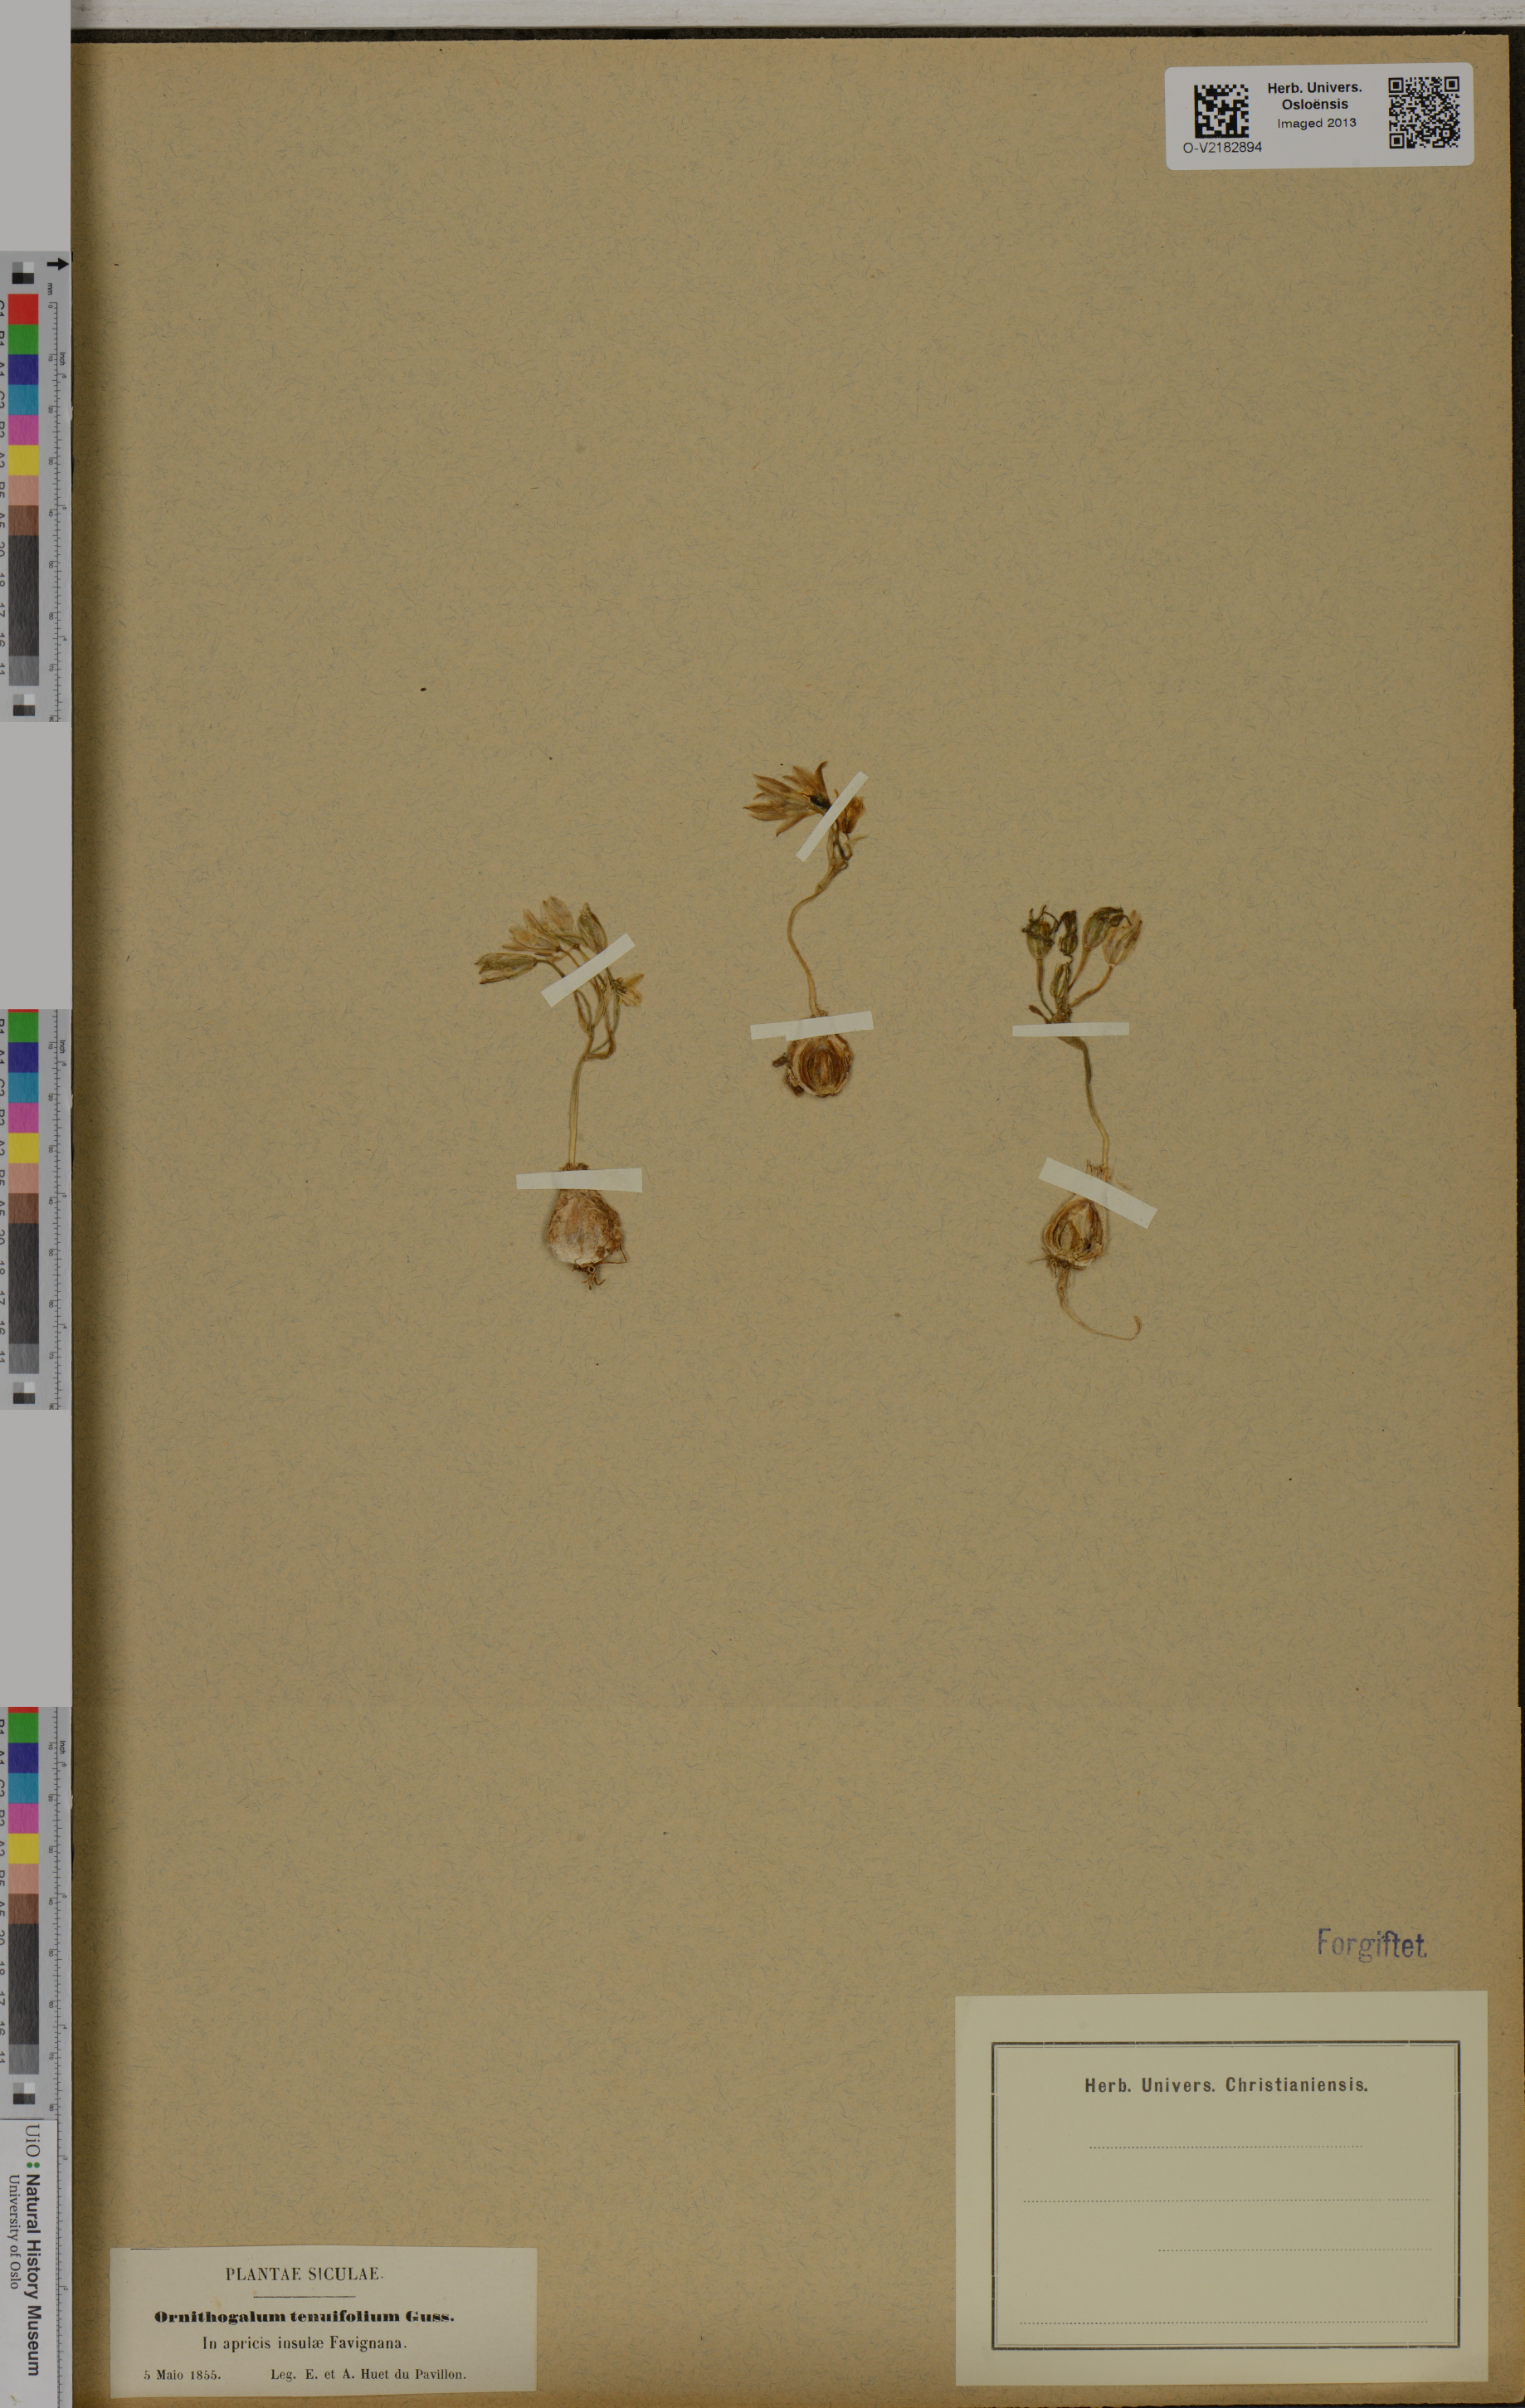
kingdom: Plantae
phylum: Tracheophyta
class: Liliopsida
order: Asparagales
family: Asparagaceae
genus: Ornithogalum
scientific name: Ornithogalum tenuifolium
